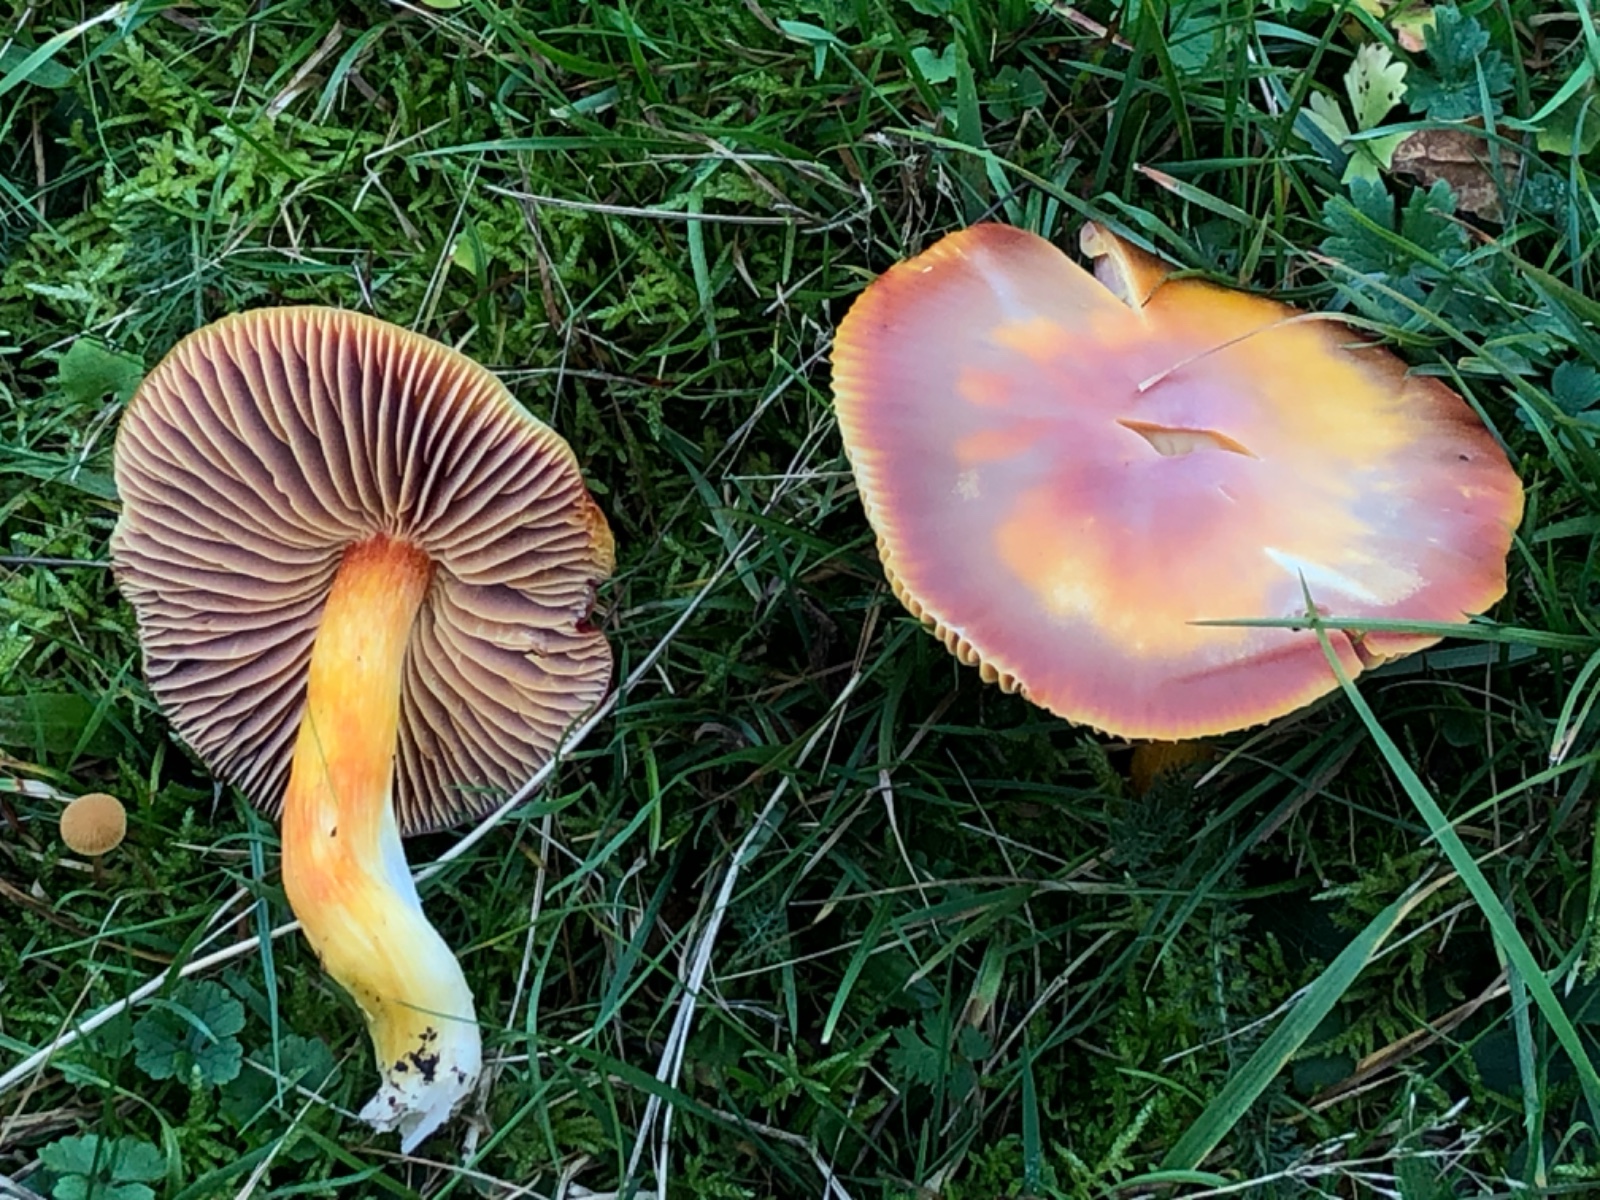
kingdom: Fungi
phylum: Basidiomycota
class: Agaricomycetes
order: Agaricales
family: Hygrophoraceae
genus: Hygrocybe
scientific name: Hygrocybe punicea
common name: skarlagen-vokshat
